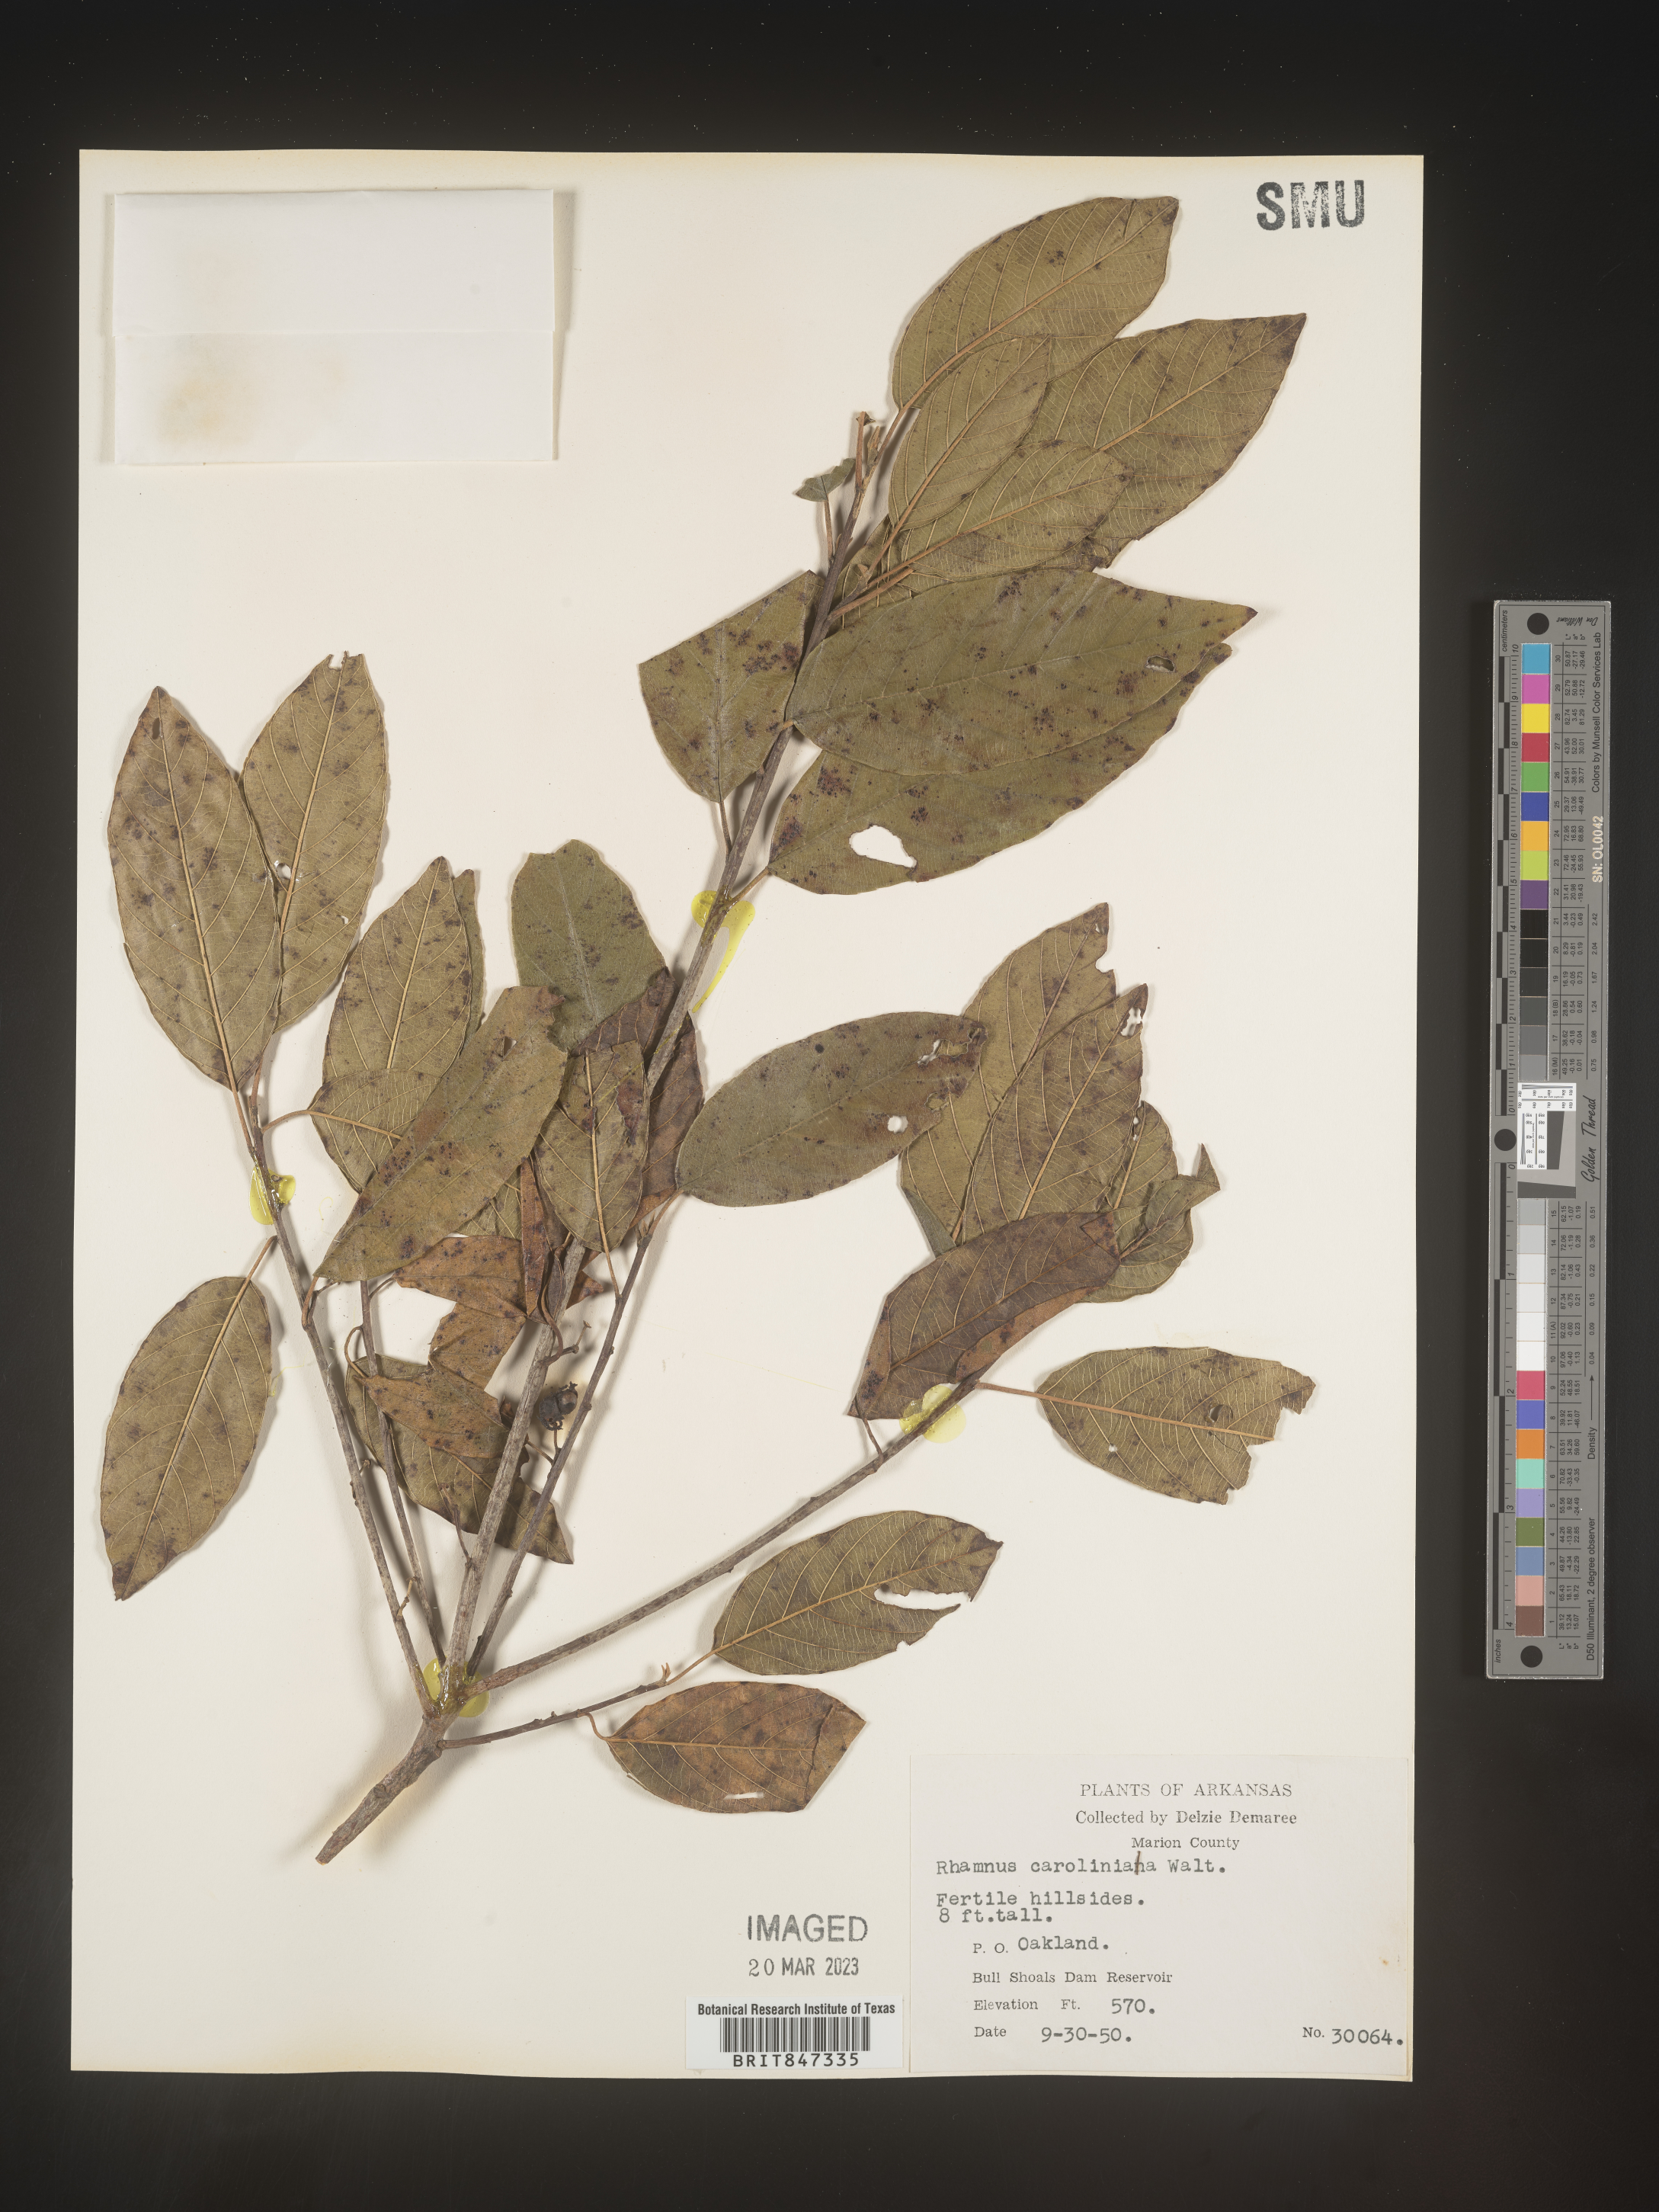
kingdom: Plantae
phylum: Tracheophyta
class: Magnoliopsida
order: Rosales
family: Rhamnaceae
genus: Frangula
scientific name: Frangula caroliniana
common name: Carolina buckthorn
